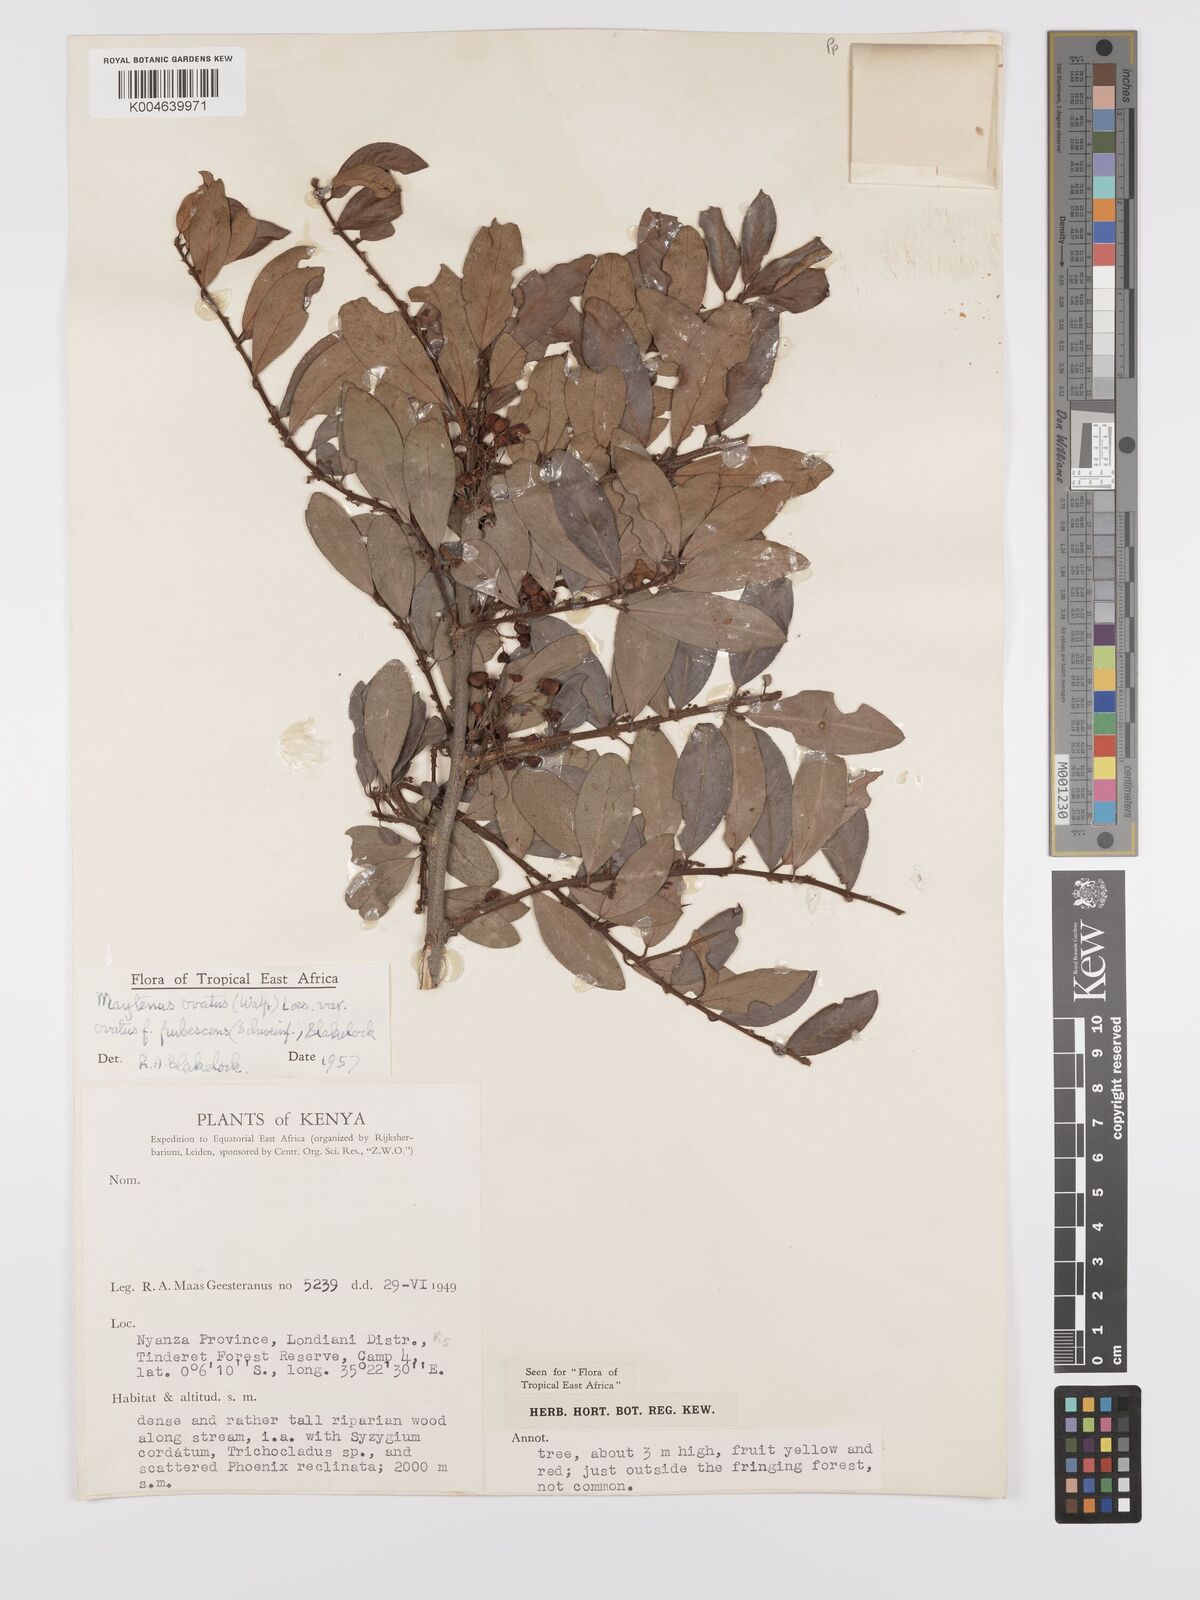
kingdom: Plantae
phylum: Tracheophyta
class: Magnoliopsida
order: Celastrales
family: Celastraceae
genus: Gymnosporia
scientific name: Gymnosporia arbutifolia
